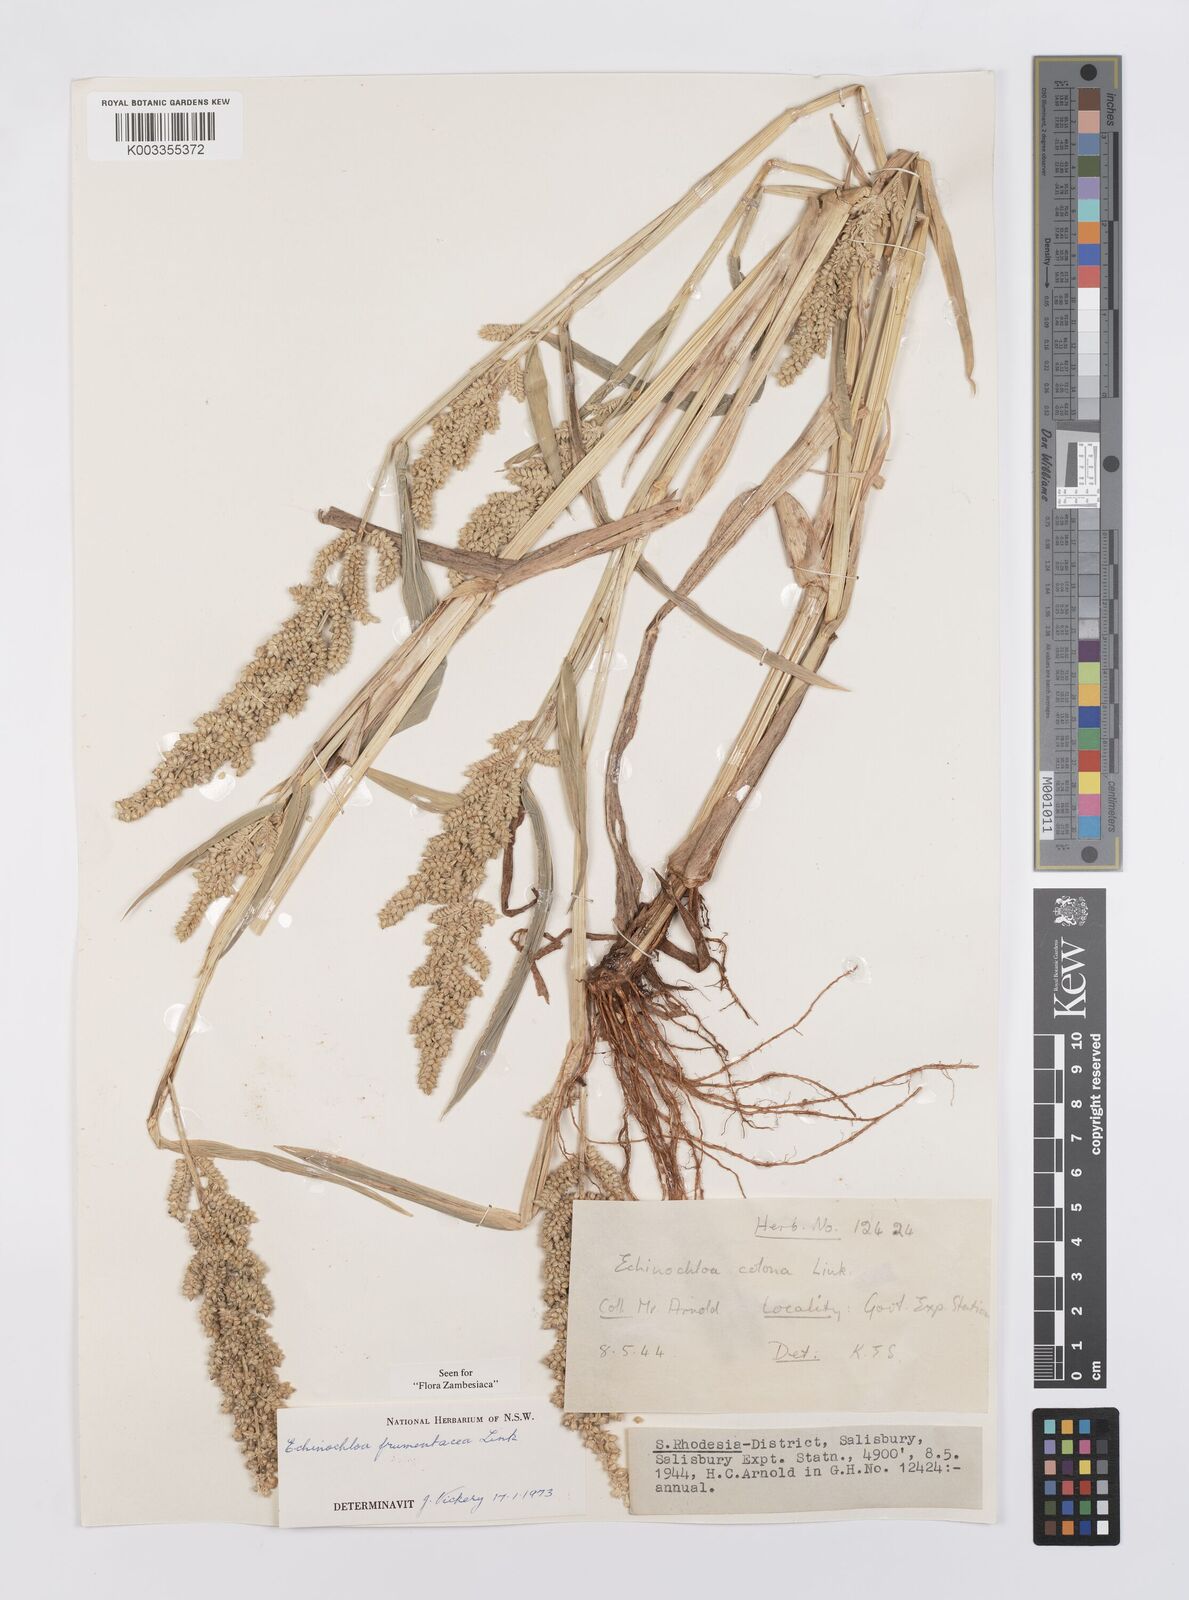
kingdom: Plantae
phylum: Tracheophyta
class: Liliopsida
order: Poales
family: Poaceae
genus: Echinochloa
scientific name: Echinochloa frumentacea
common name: Billion-dollar grass
